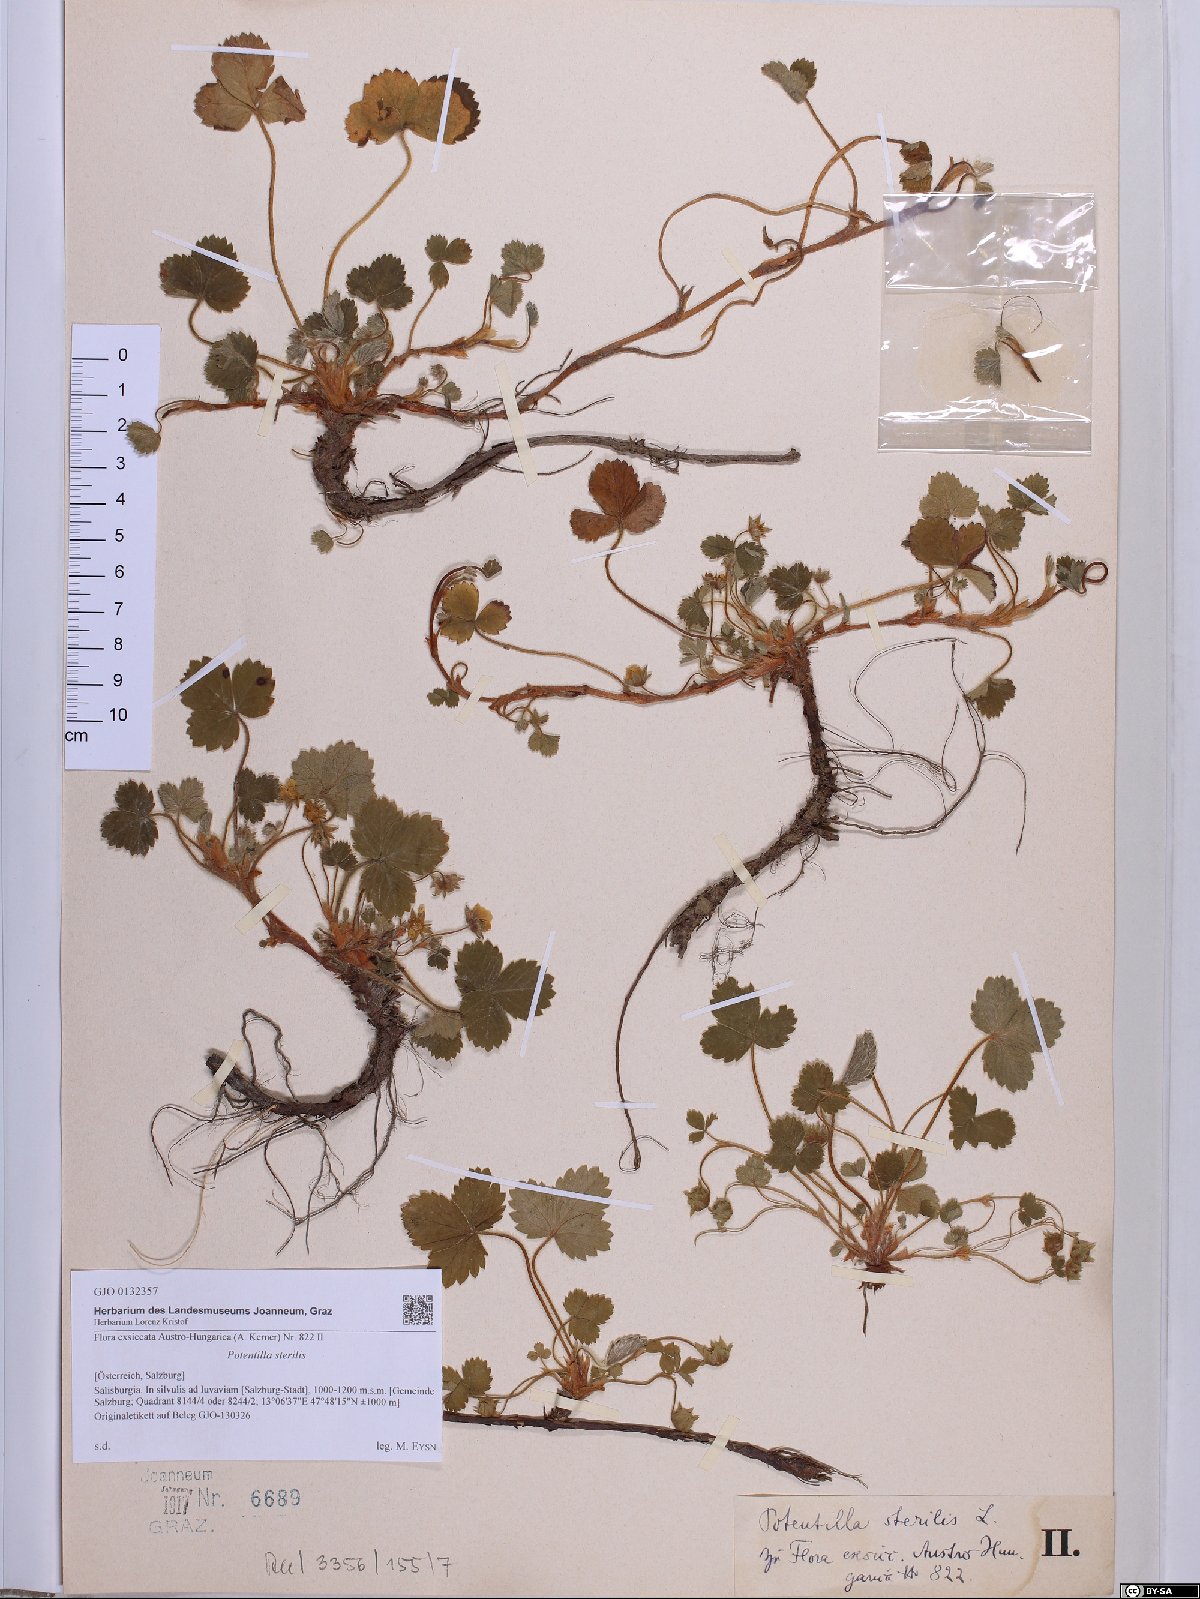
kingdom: Plantae
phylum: Tracheophyta
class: Magnoliopsida
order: Rosales
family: Rosaceae
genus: Potentilla
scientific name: Potentilla sterilis
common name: Barren strawberry
